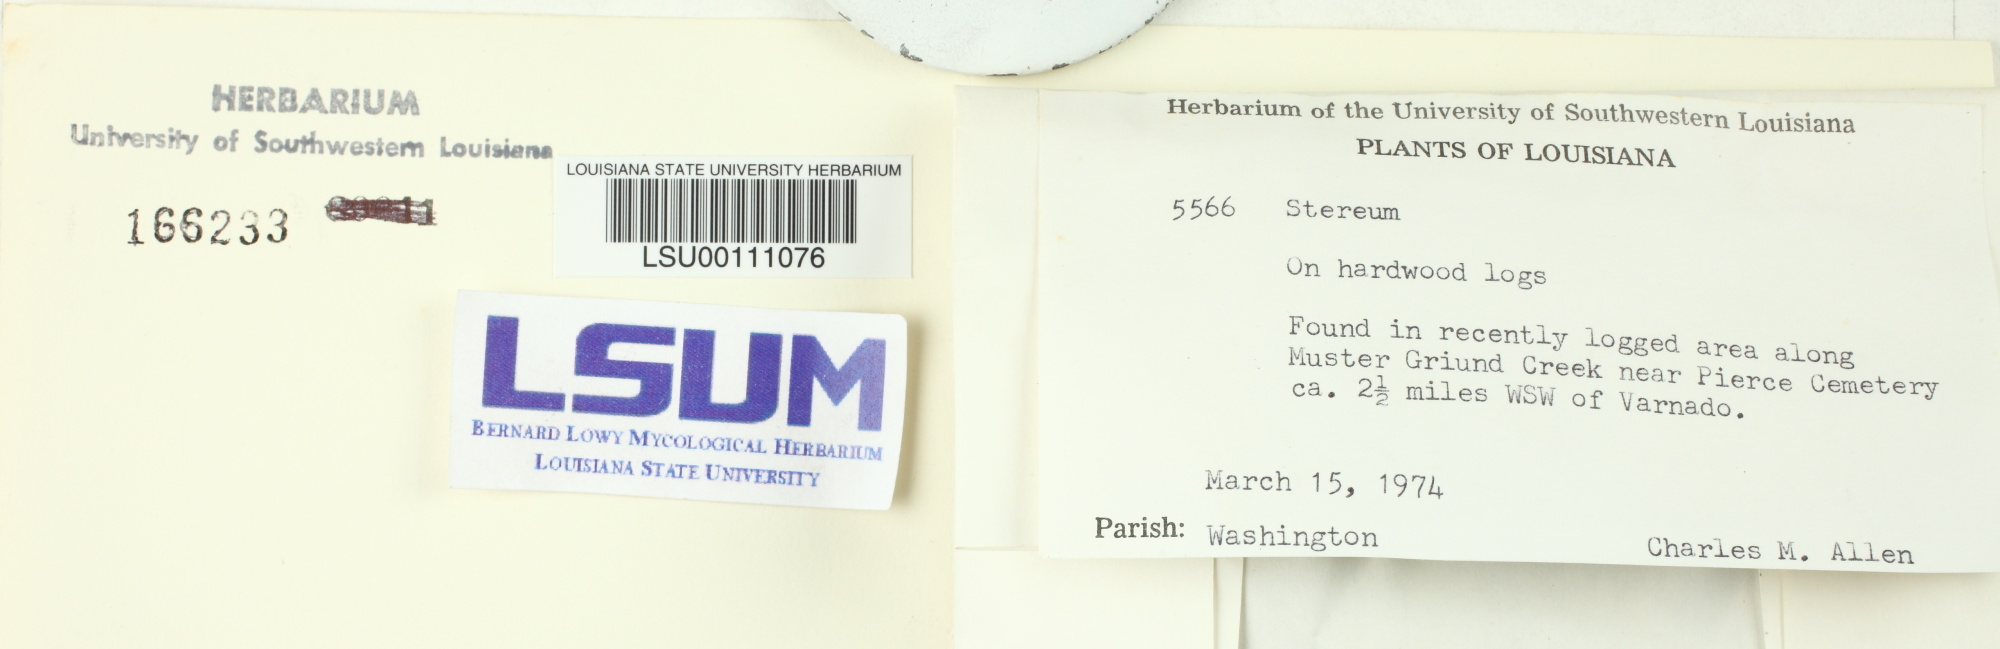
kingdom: Fungi
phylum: Basidiomycota
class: Agaricomycetes
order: Russulales
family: Stereaceae
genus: Stereum
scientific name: Stereum
